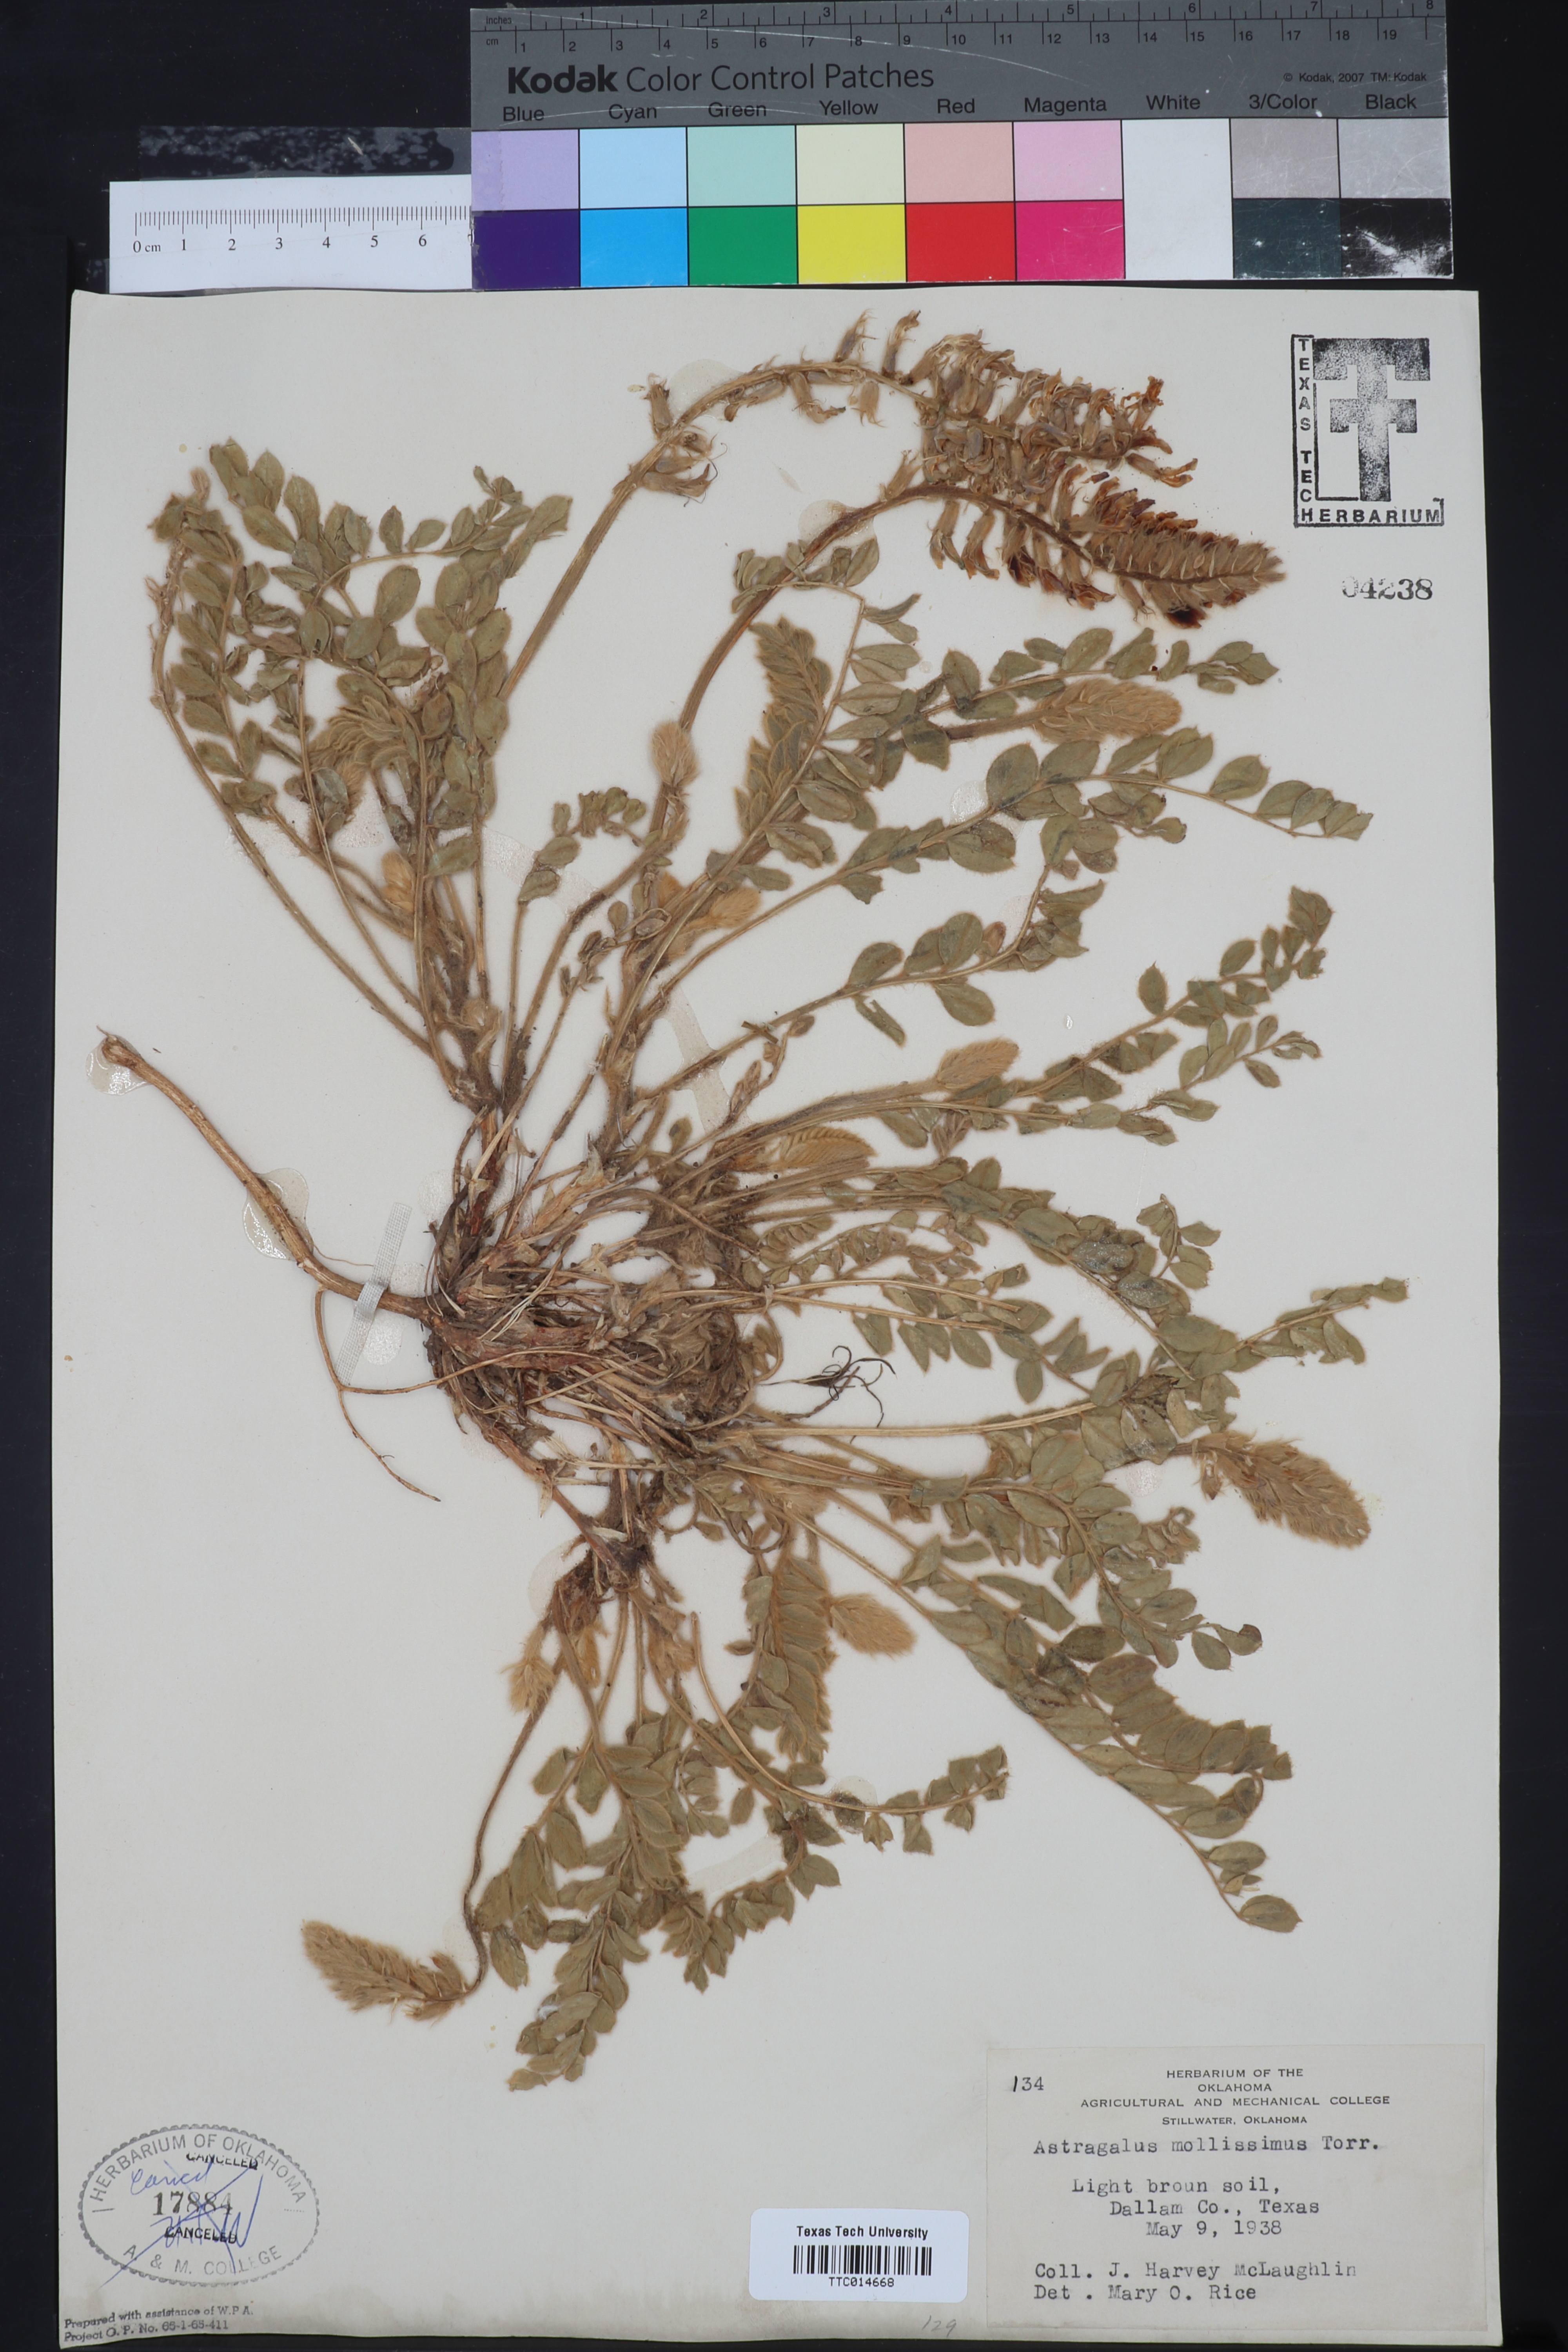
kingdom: Plantae
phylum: Tracheophyta
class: Magnoliopsida
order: Fabales
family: Fabaceae
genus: Astragalus
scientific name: Astragalus mollissimus
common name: Woolly locoweed
